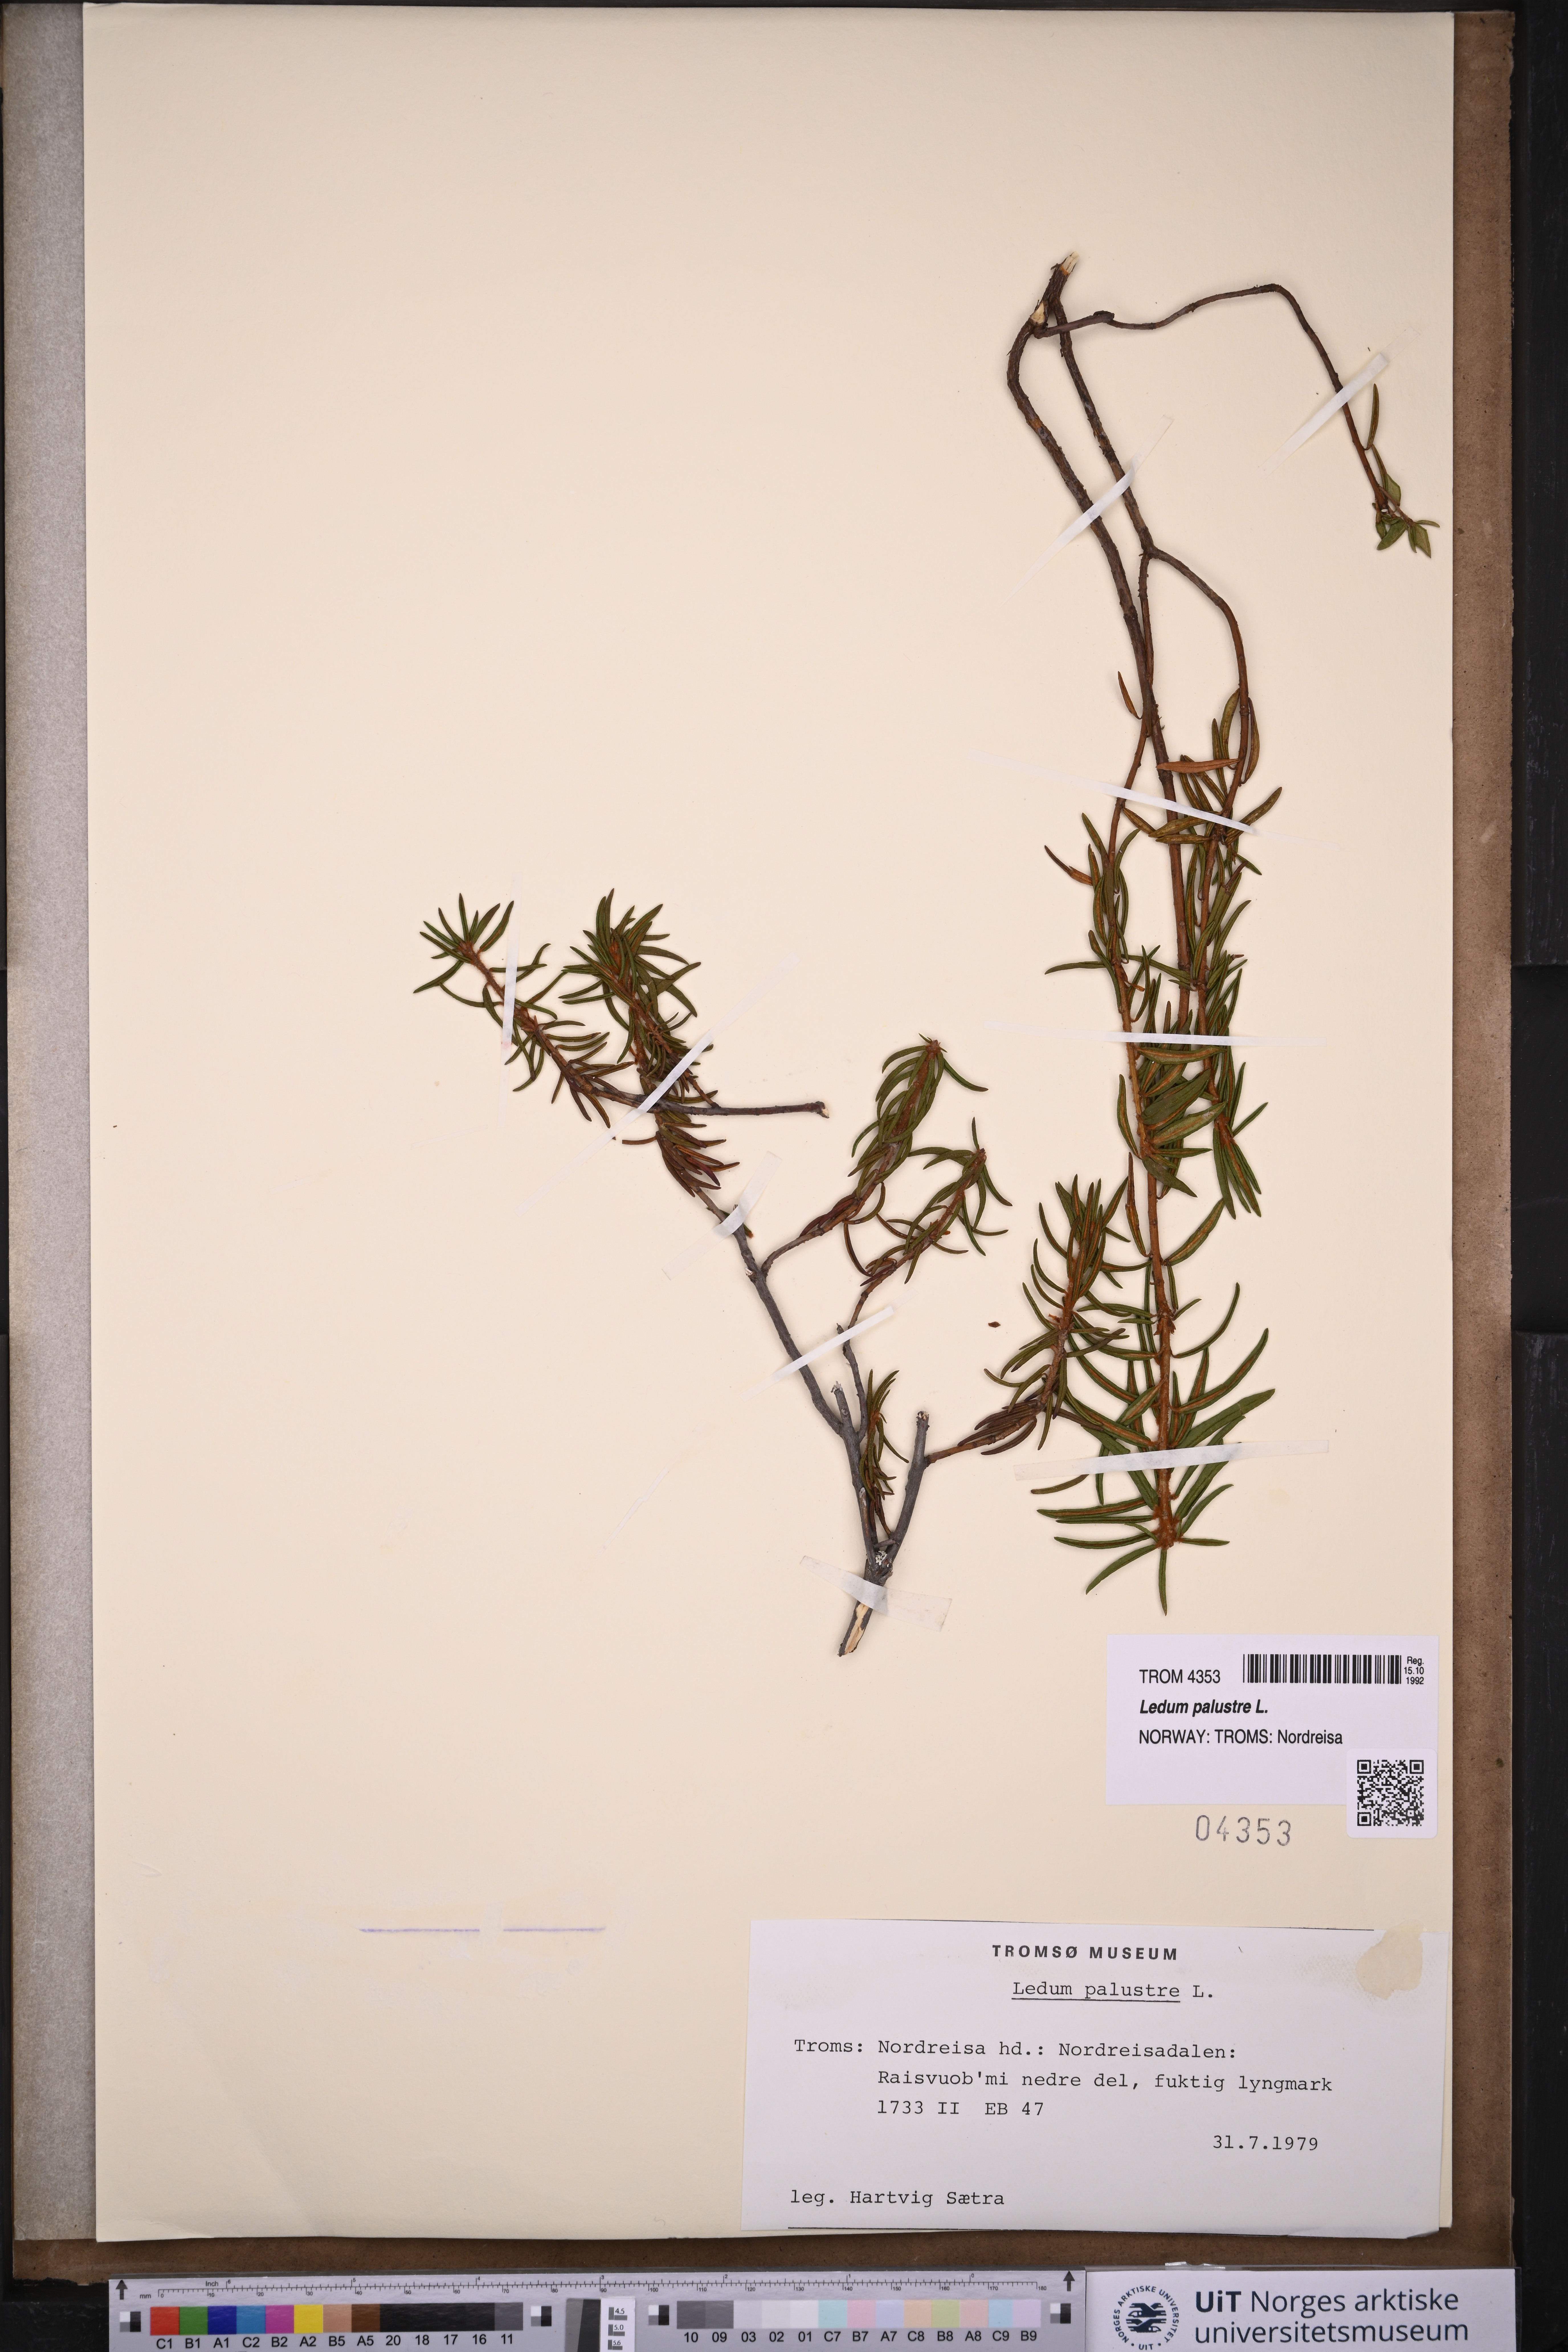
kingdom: Plantae
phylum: Tracheophyta
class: Magnoliopsida
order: Ericales
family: Ericaceae
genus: Rhododendron
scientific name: Rhododendron tomentosum
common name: Marsh labrador tea
